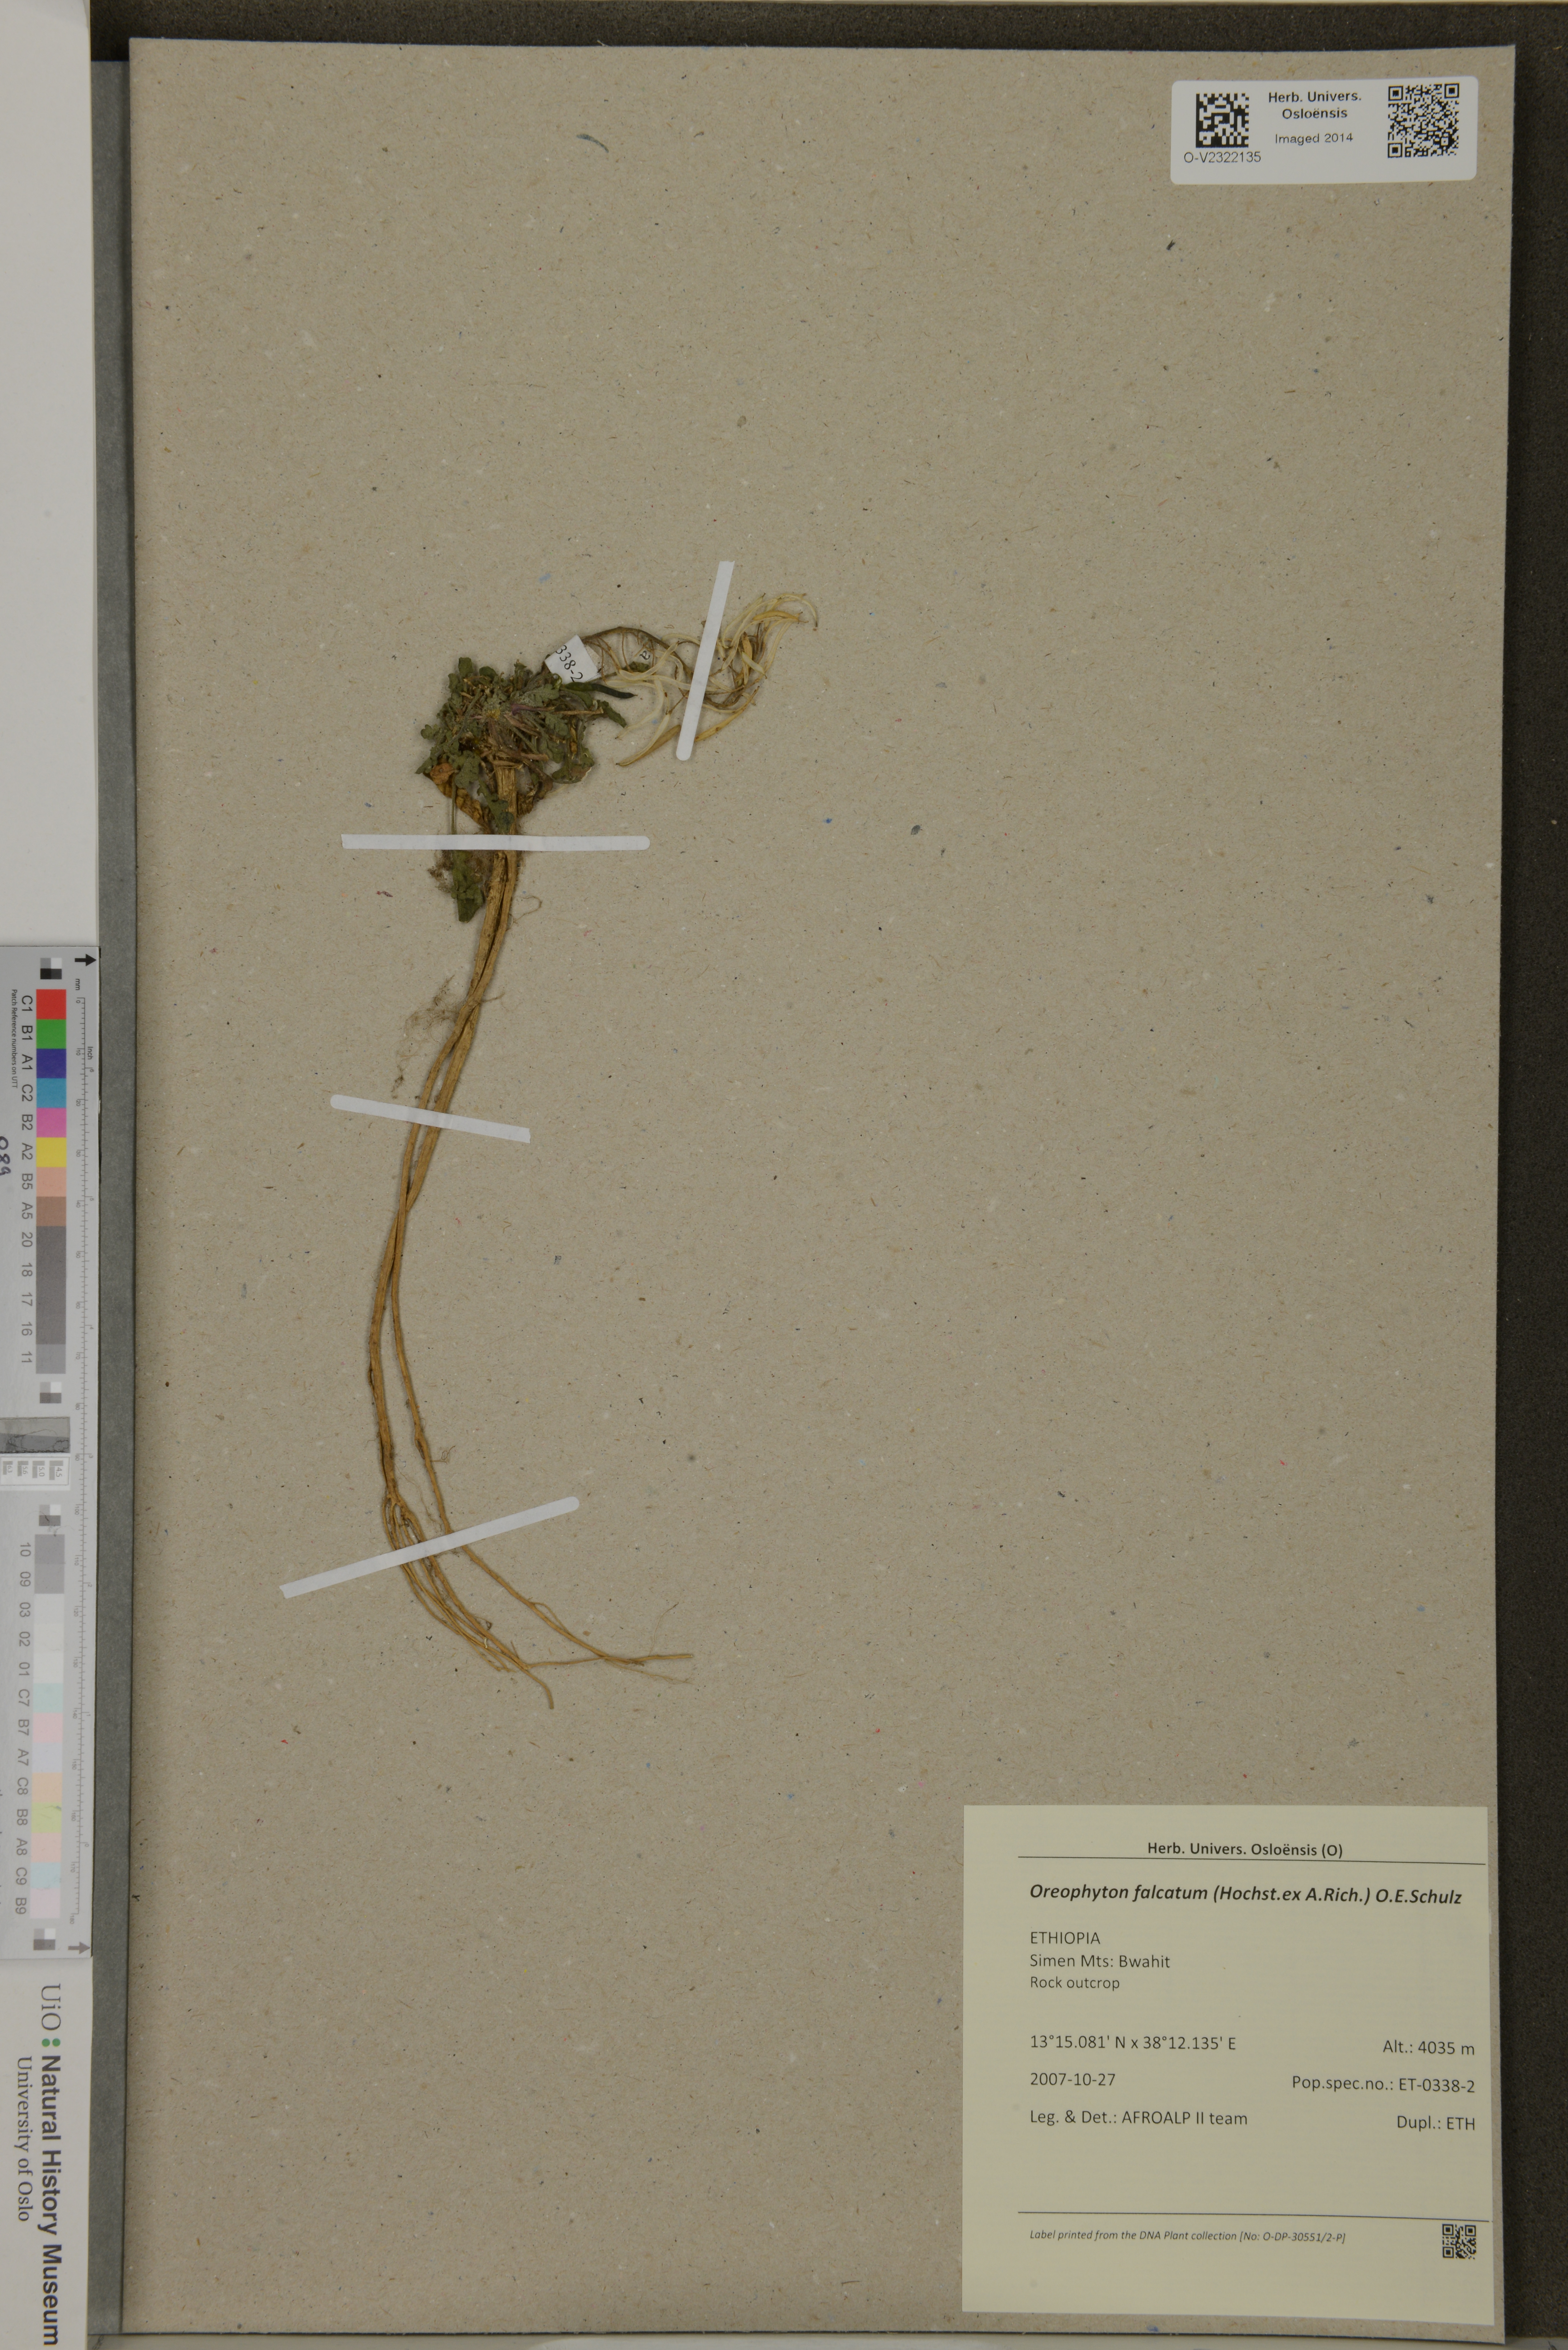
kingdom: Plantae
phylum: Tracheophyta
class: Magnoliopsida
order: Brassicales
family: Brassicaceae
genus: Oreophyton
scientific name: Oreophyton falcatum
